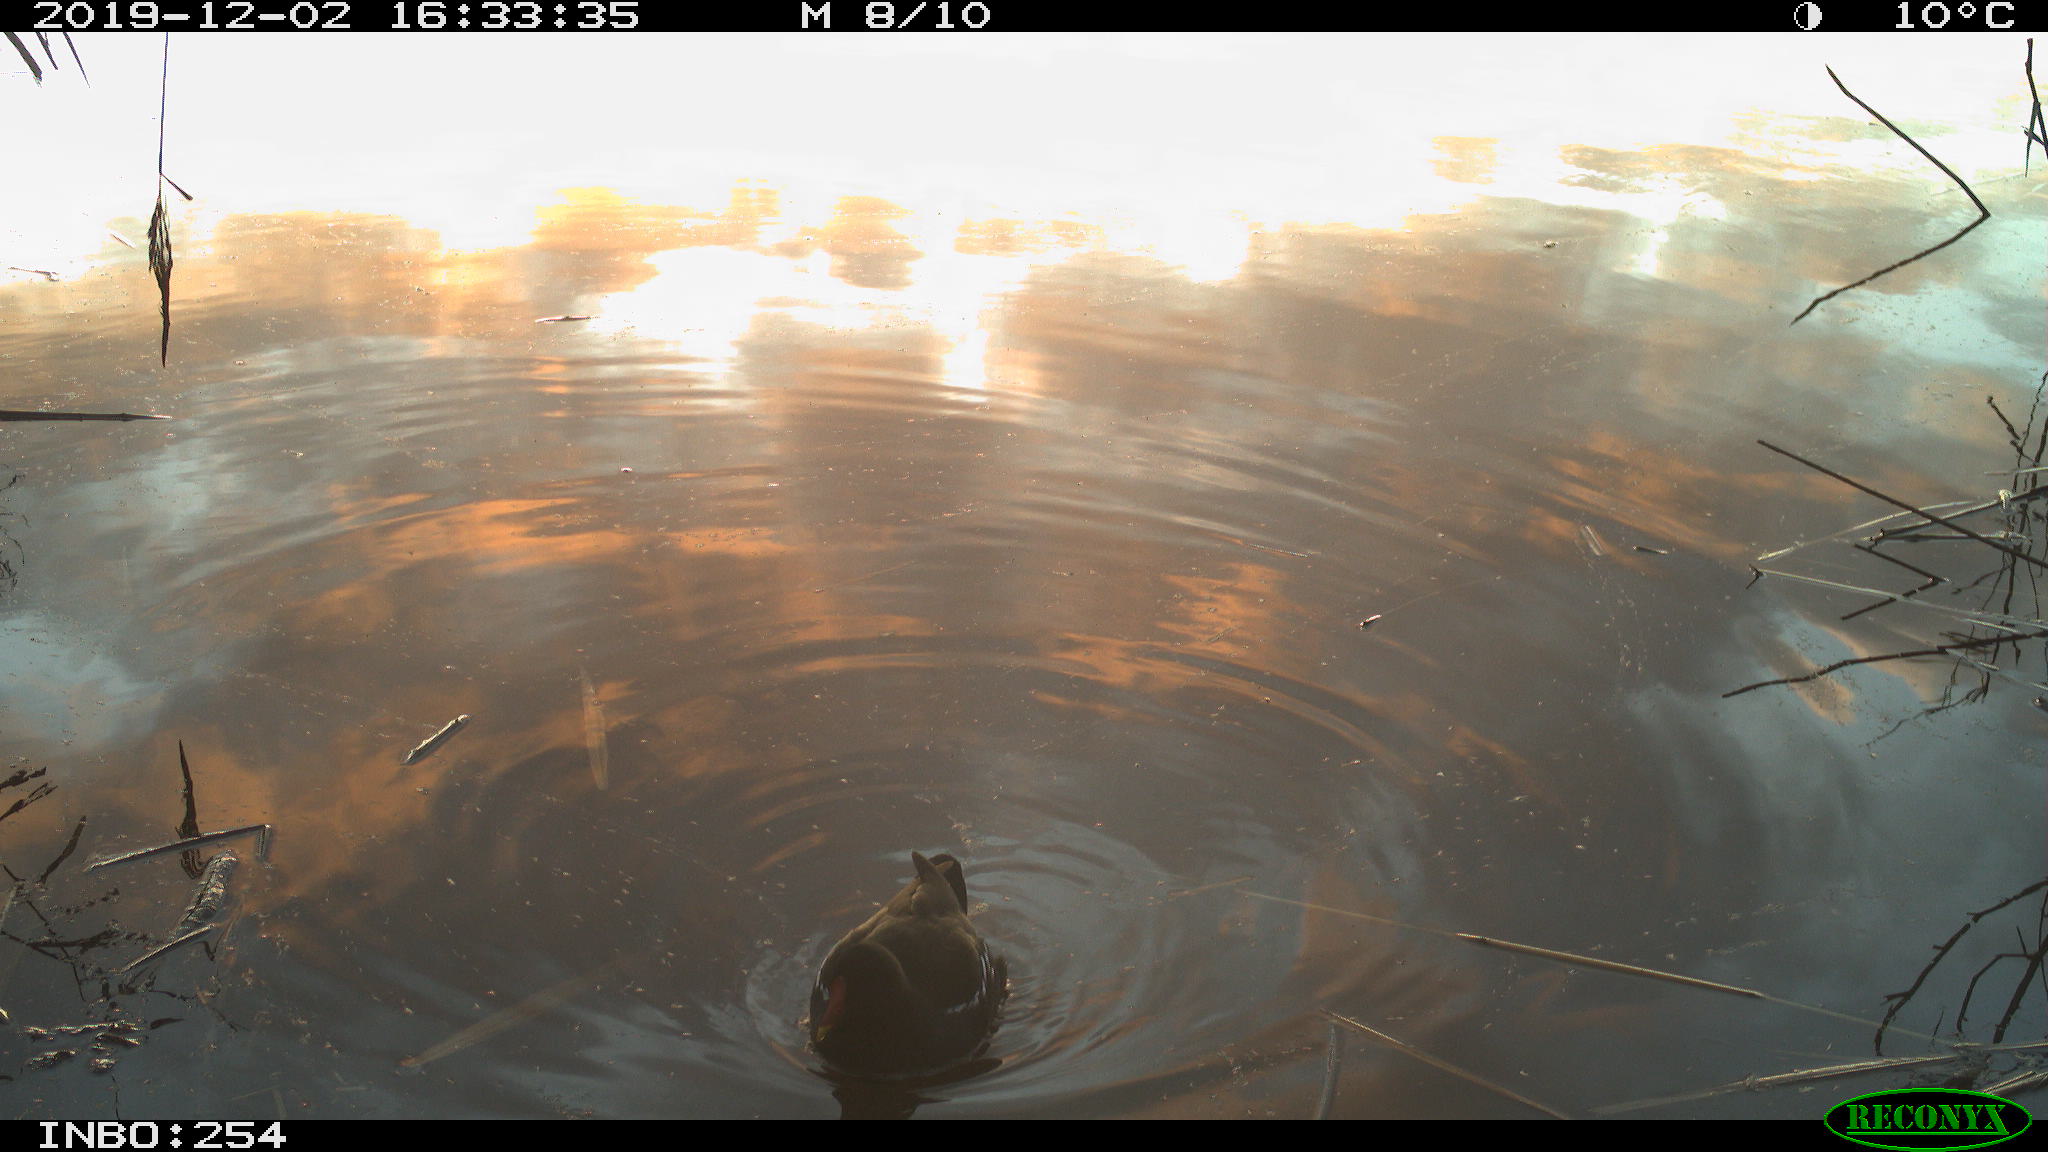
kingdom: Animalia
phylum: Chordata
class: Aves
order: Gruiformes
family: Rallidae
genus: Gallinula
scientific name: Gallinula chloropus
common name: Common moorhen
